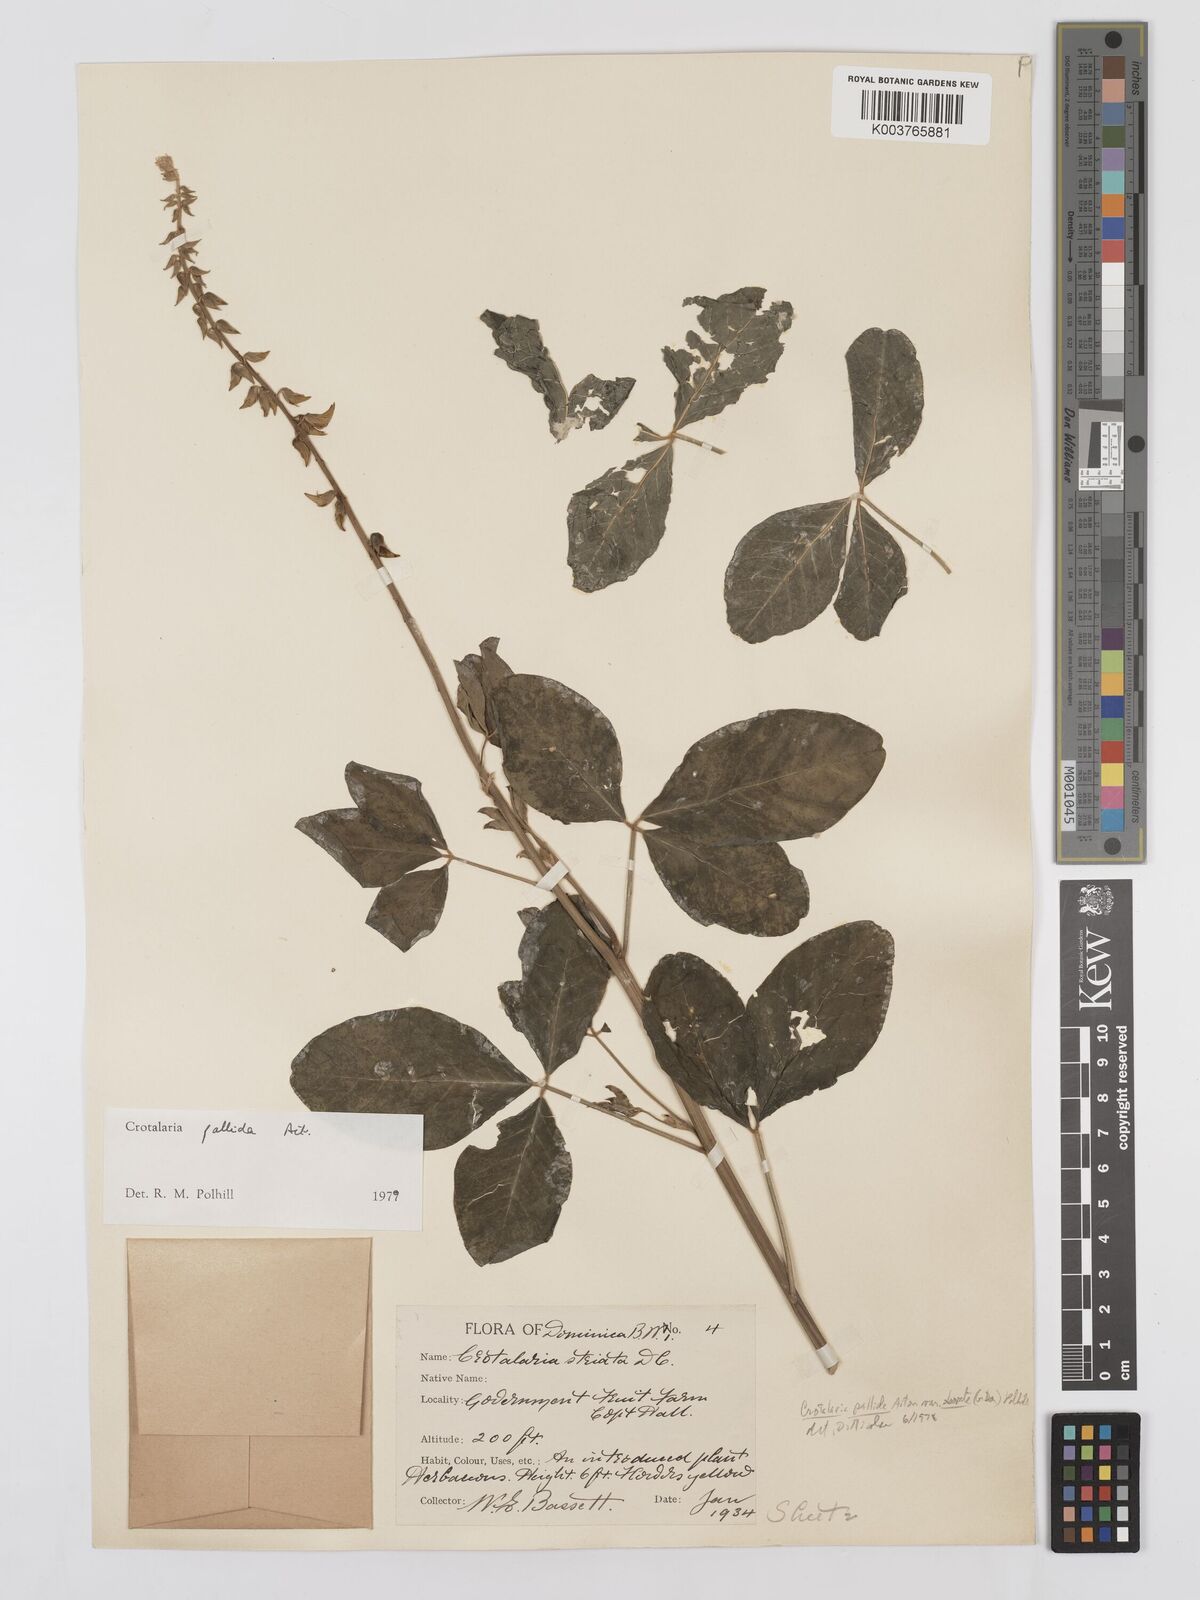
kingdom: Plantae
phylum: Tracheophyta
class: Magnoliopsida
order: Fabales
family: Fabaceae
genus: Crotalaria
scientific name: Crotalaria pallida
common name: Smooth rattlebox
